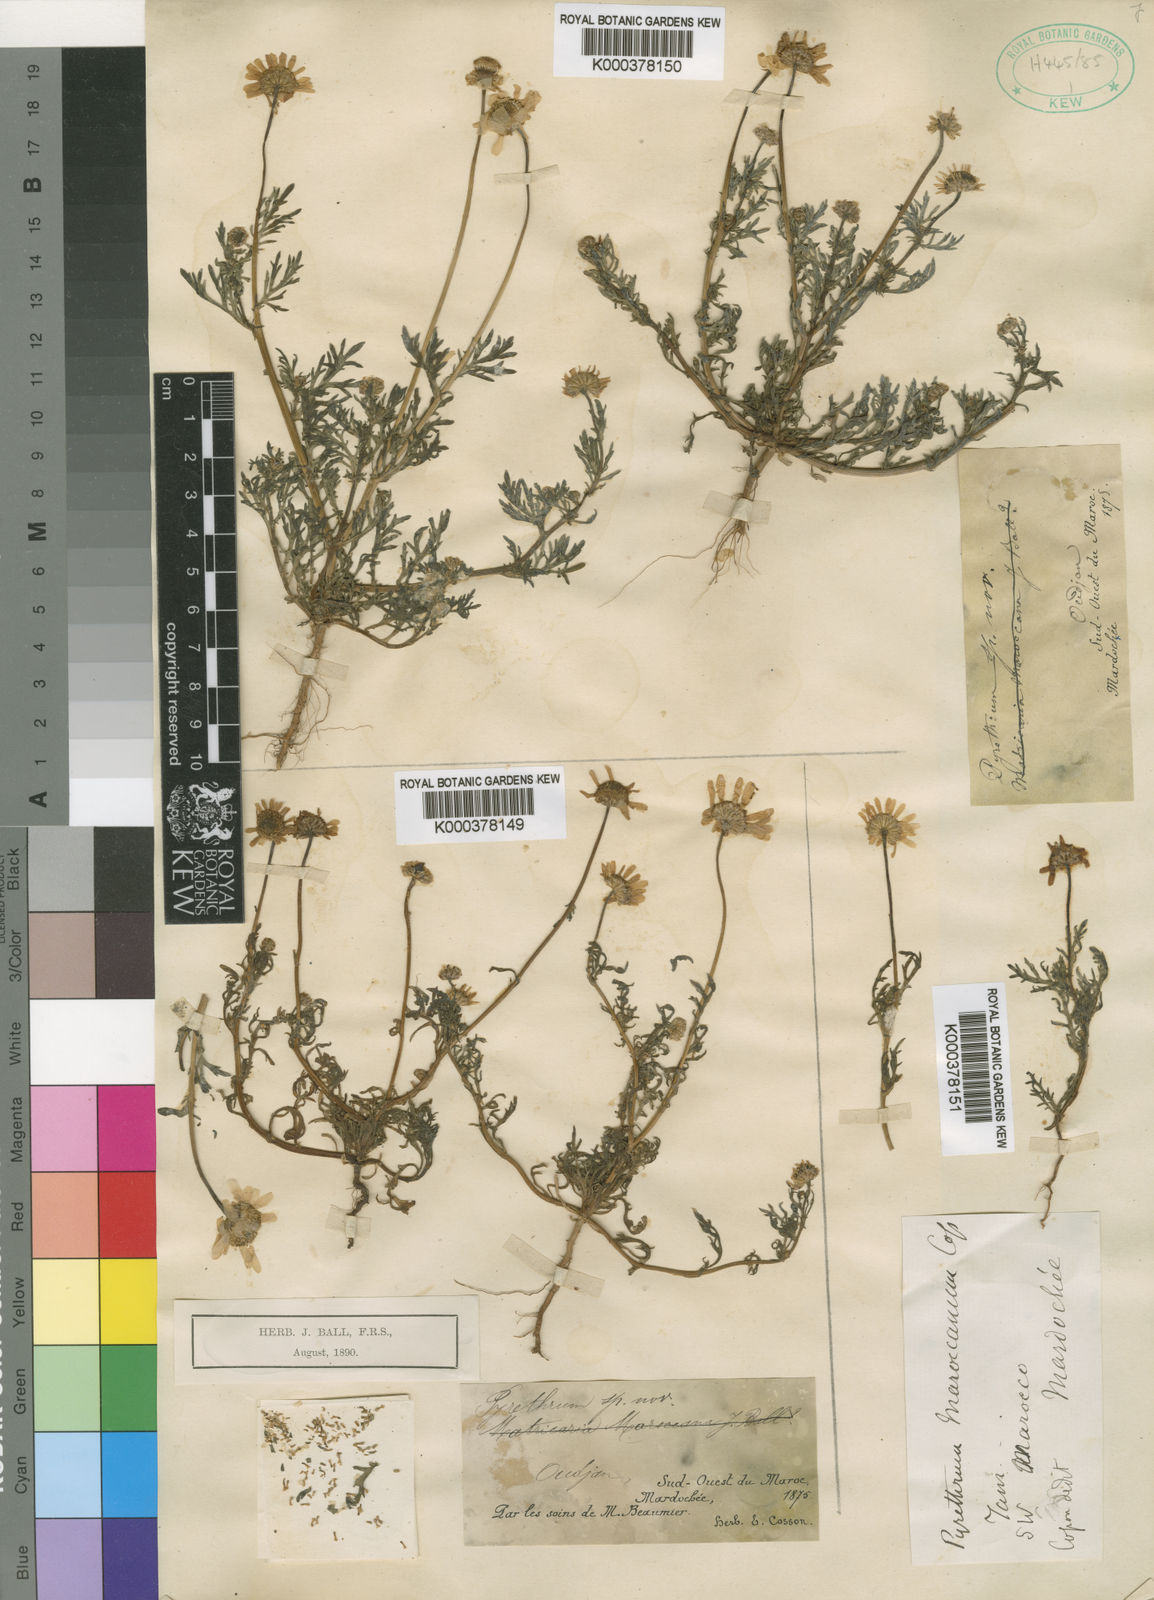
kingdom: Plantae
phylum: Tracheophyta
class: Magnoliopsida
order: Asterales
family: Asteraceae
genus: Rhodanthemum
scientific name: Rhodanthemum maroccanum
